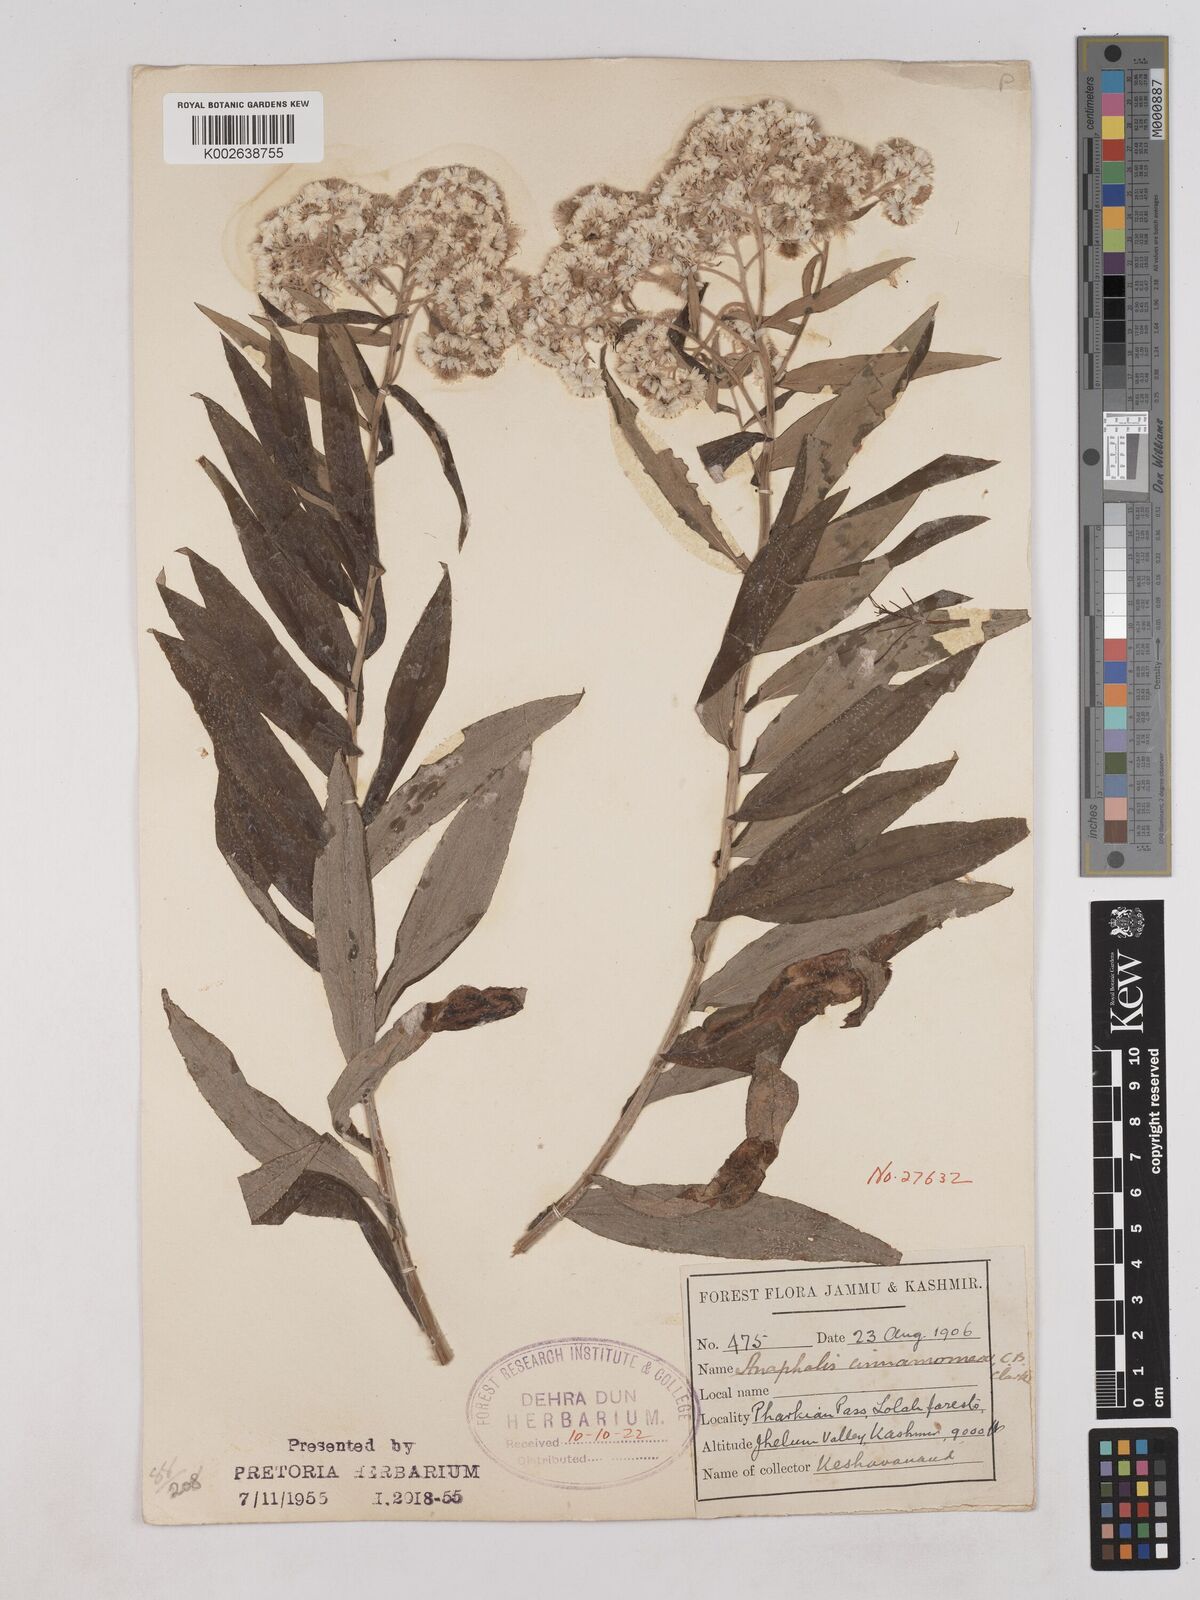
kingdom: Plantae
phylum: Tracheophyta
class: Magnoliopsida
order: Asterales
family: Asteraceae
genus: Anaphalis
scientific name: Anaphalis marcescens
